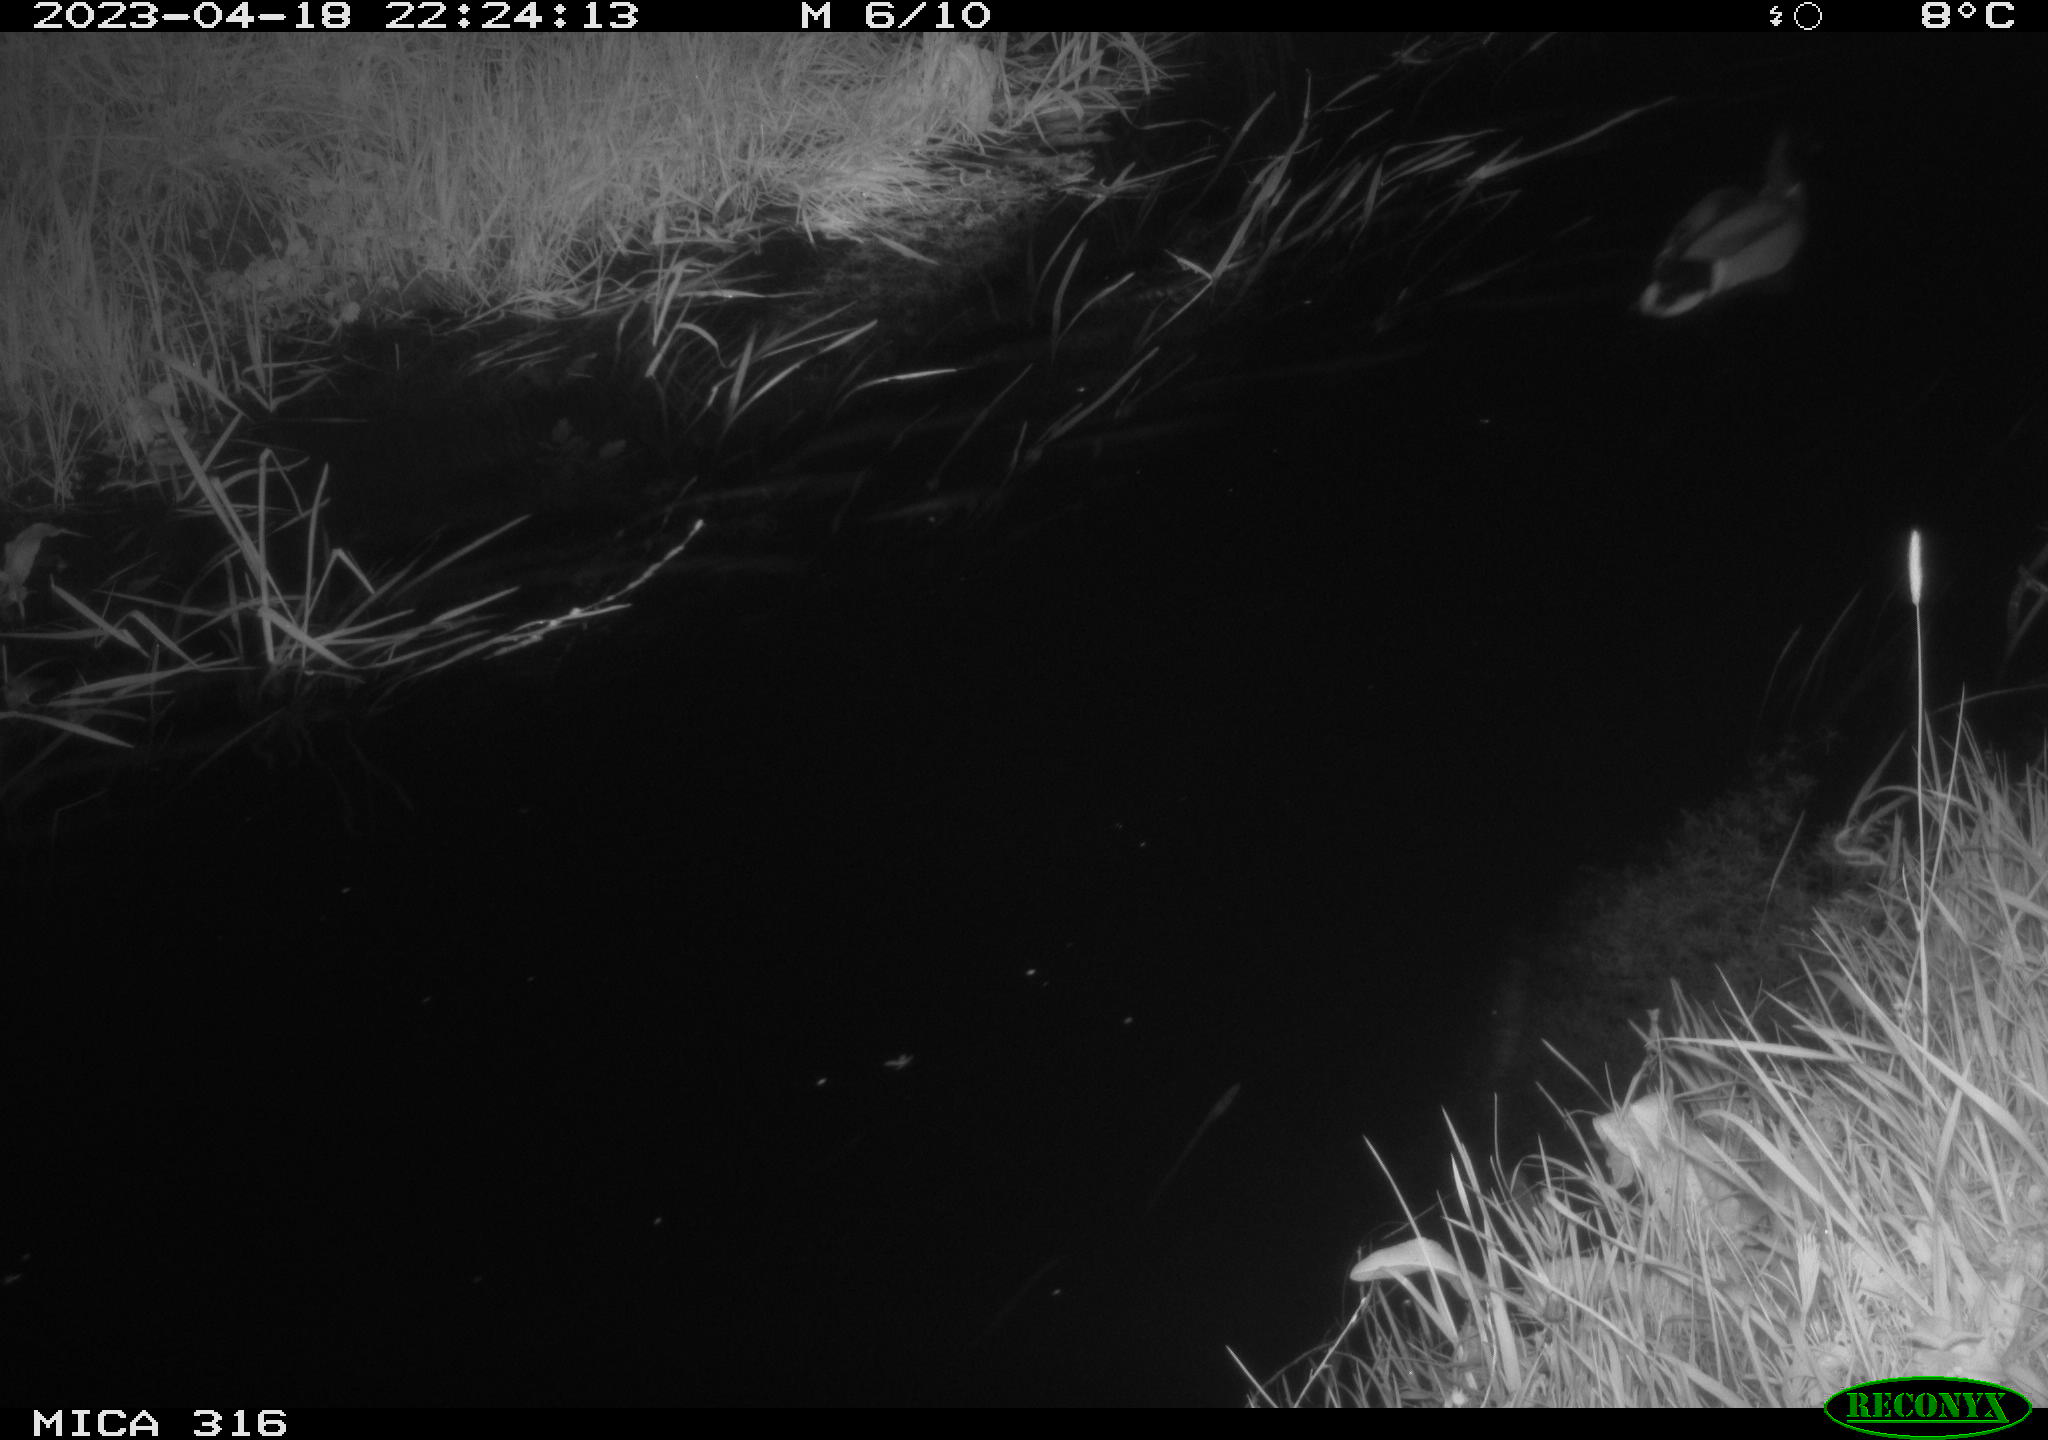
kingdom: Animalia
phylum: Chordata
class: Aves
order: Anseriformes
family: Anatidae
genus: Anas
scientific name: Anas
